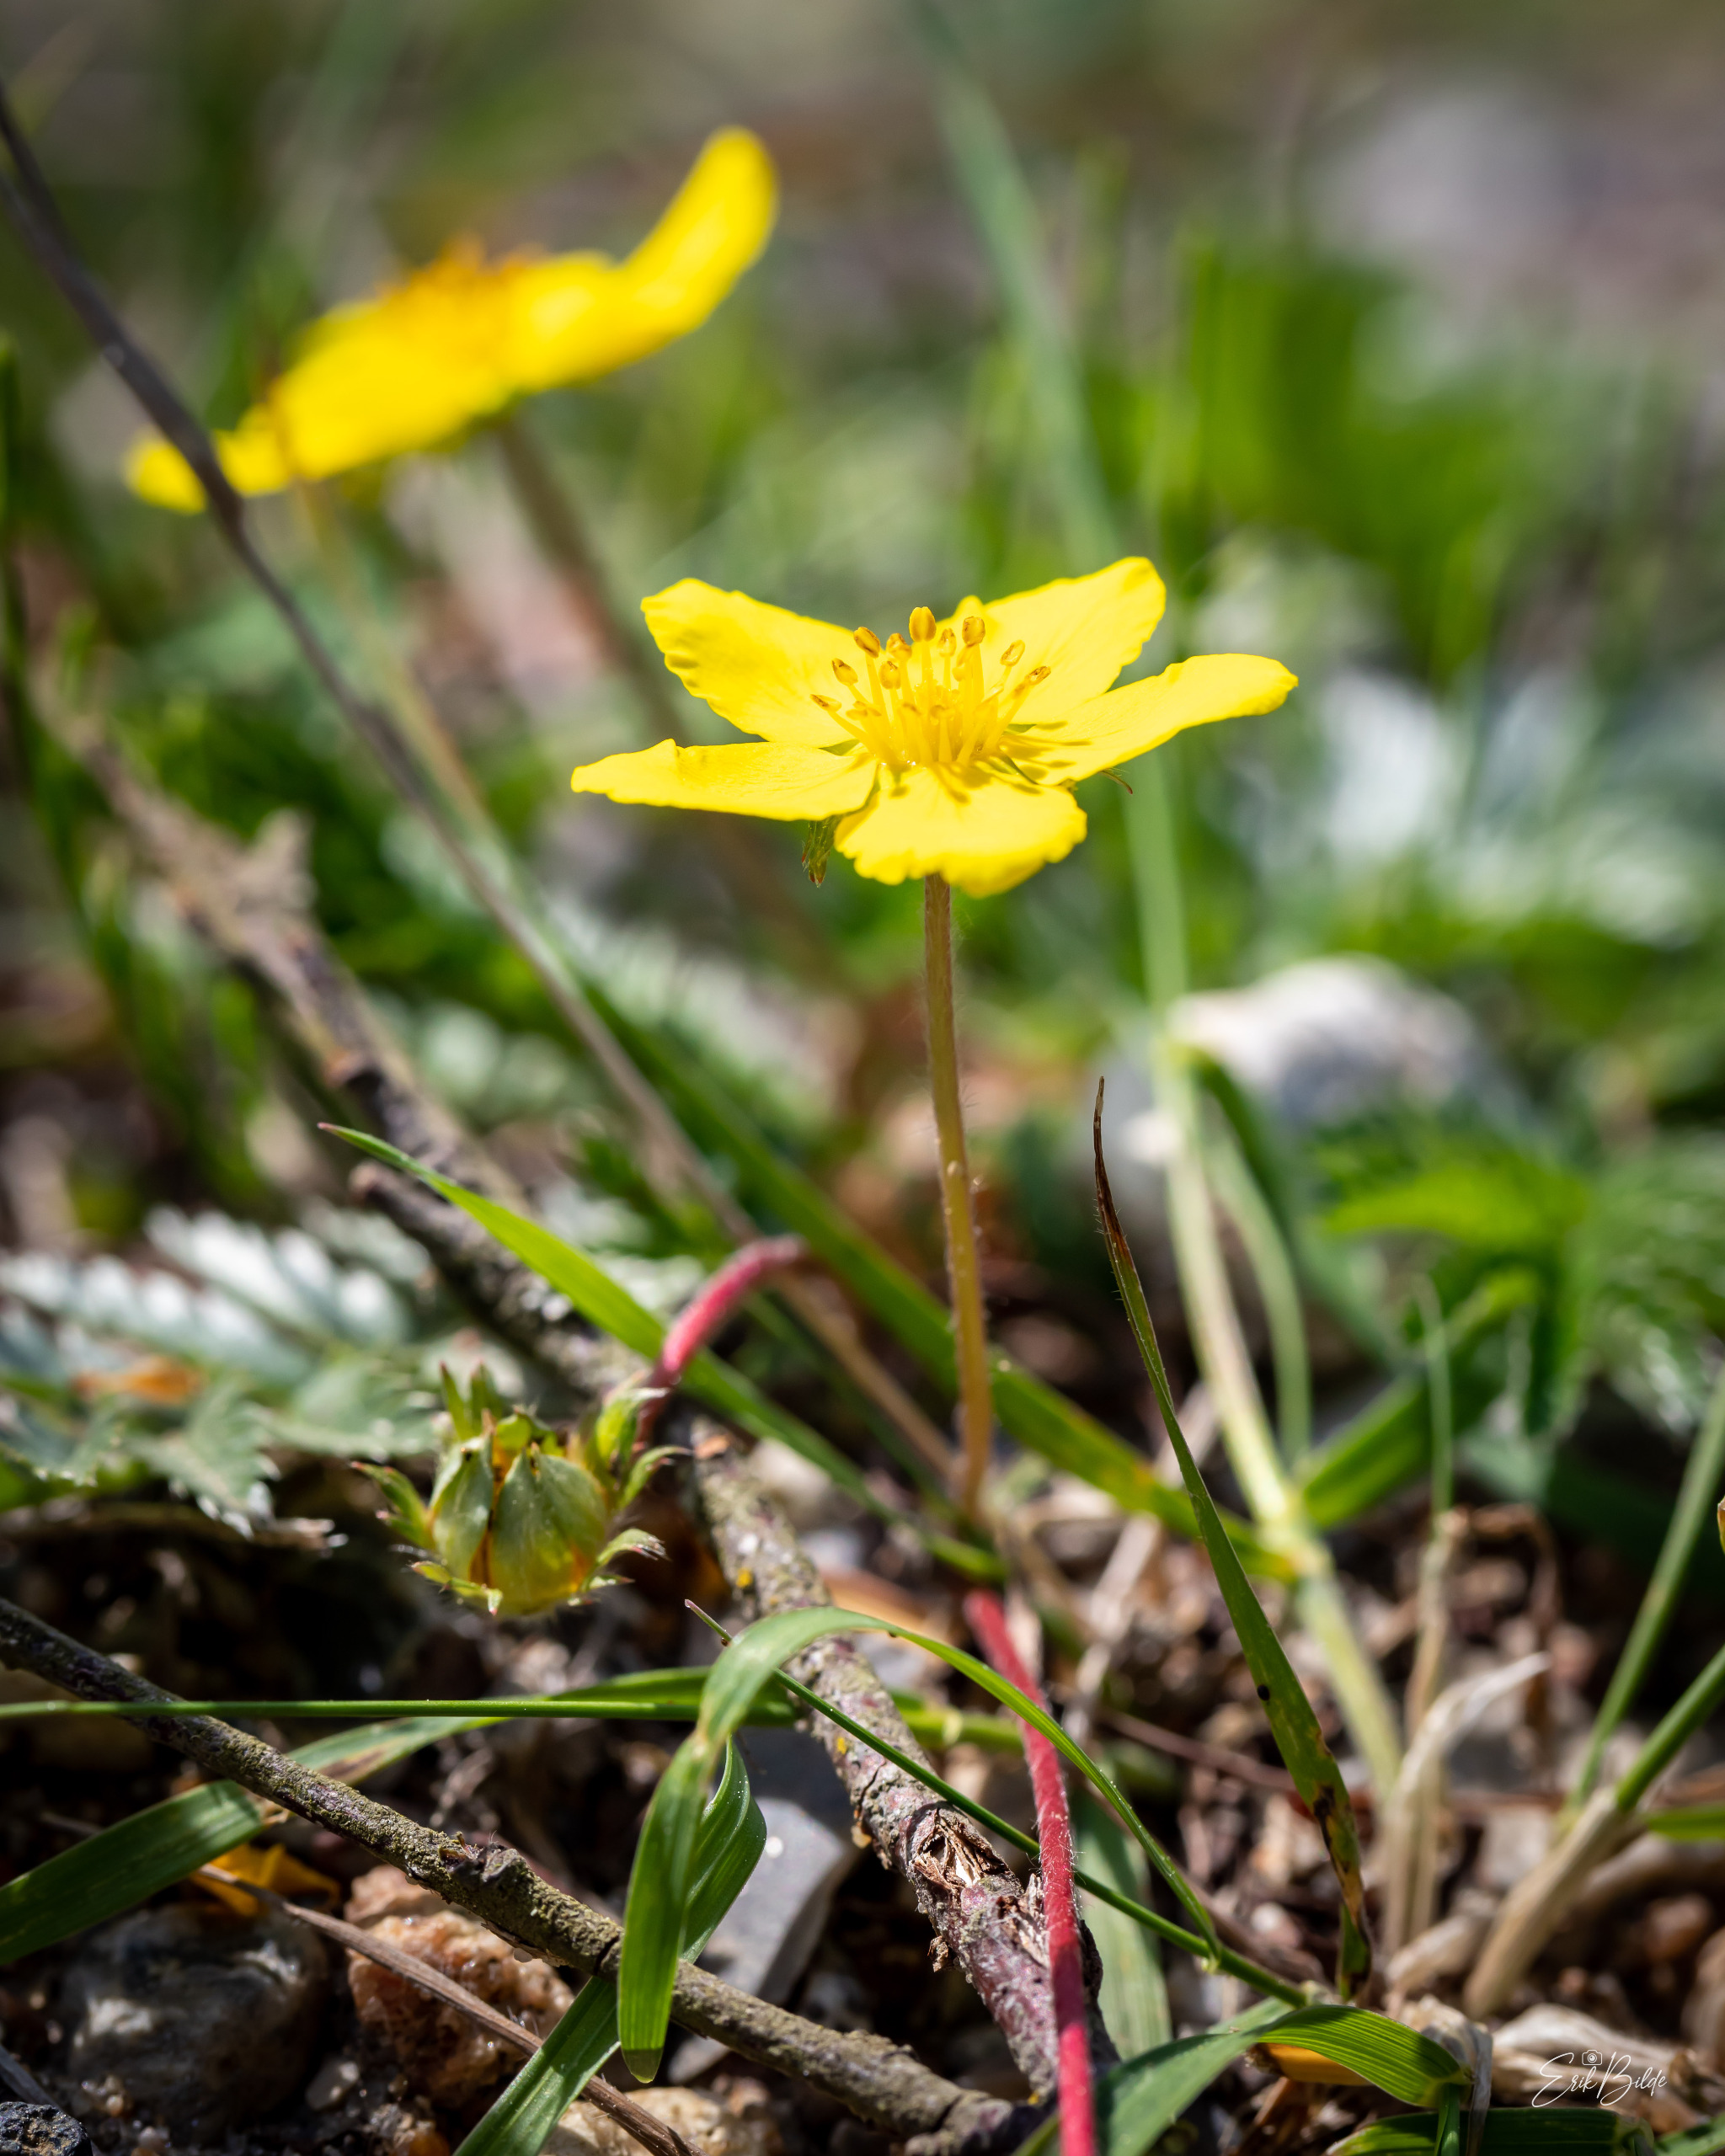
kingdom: Plantae
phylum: Tracheophyta
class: Magnoliopsida
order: Rosales
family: Rosaceae
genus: Argentina
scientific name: Argentina anserina
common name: Gåsepotentil
